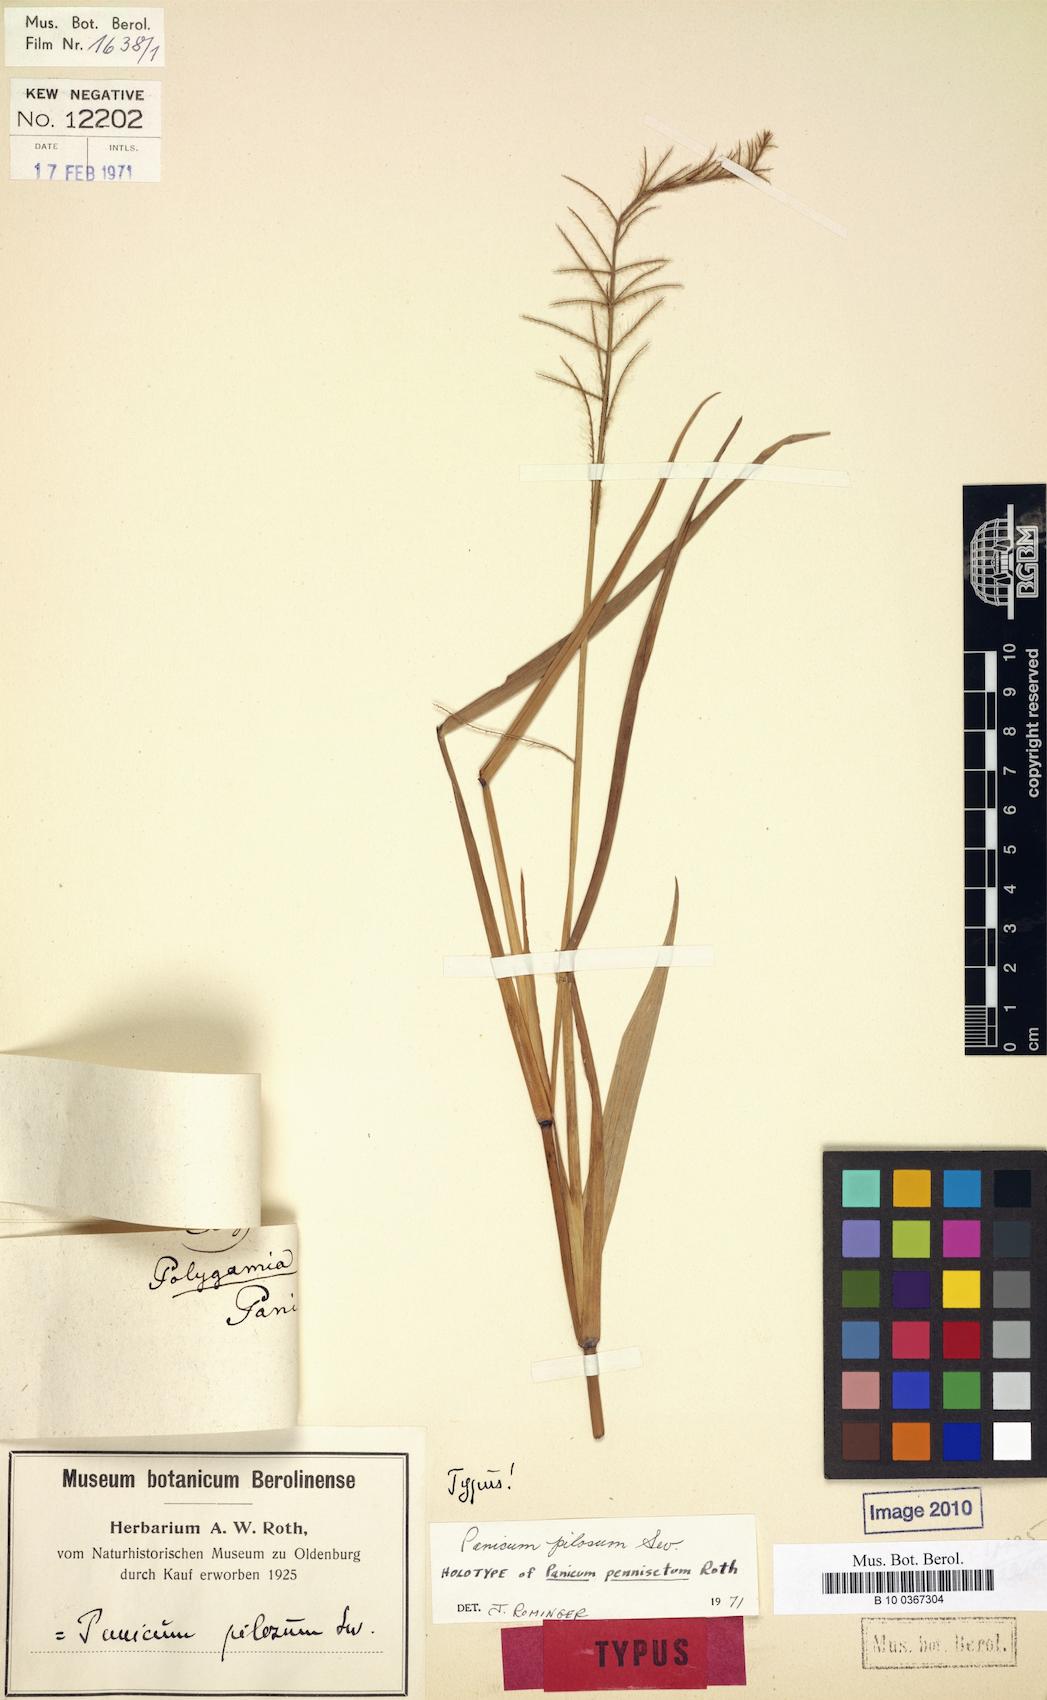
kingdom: Plantae
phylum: Tracheophyta
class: Liliopsida
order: Poales
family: Poaceae
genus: Rugoloa
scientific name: Rugoloa pilosa
